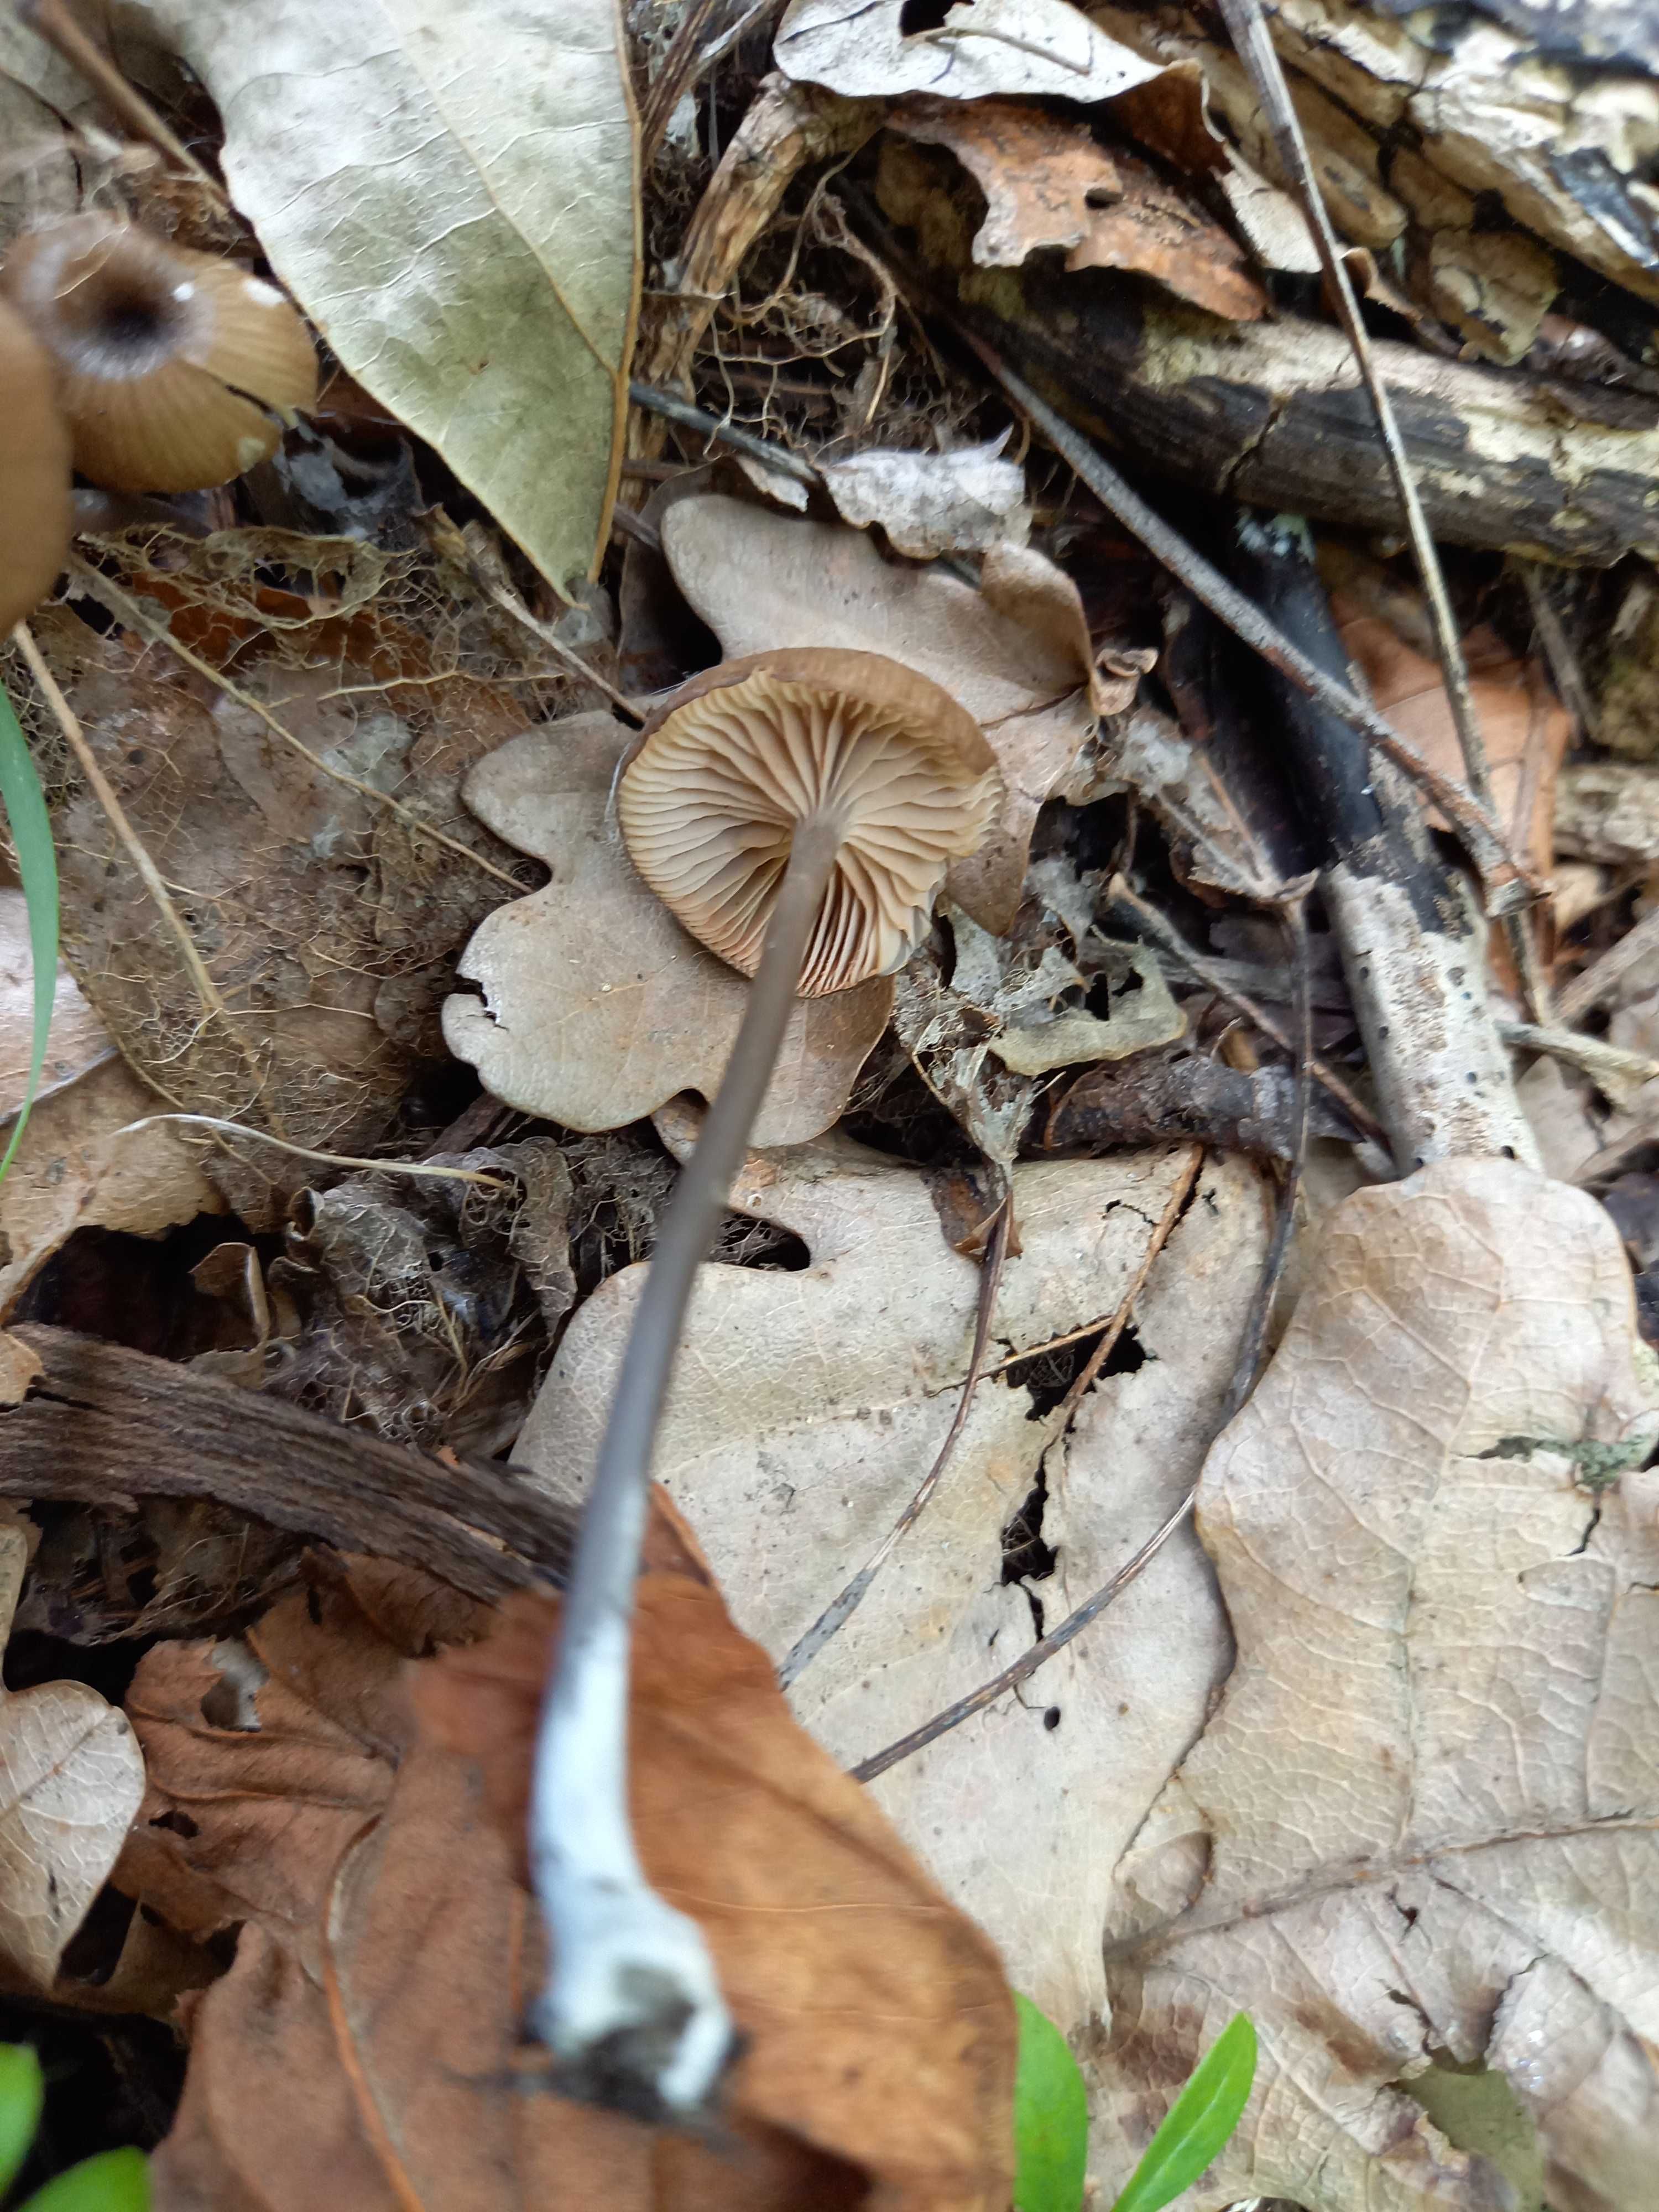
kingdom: Fungi
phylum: Basidiomycota
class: Agaricomycetes
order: Agaricales
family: Entolomataceae
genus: Entoloma
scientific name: Entoloma incarnatofuscescens
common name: tragt-rødblad
